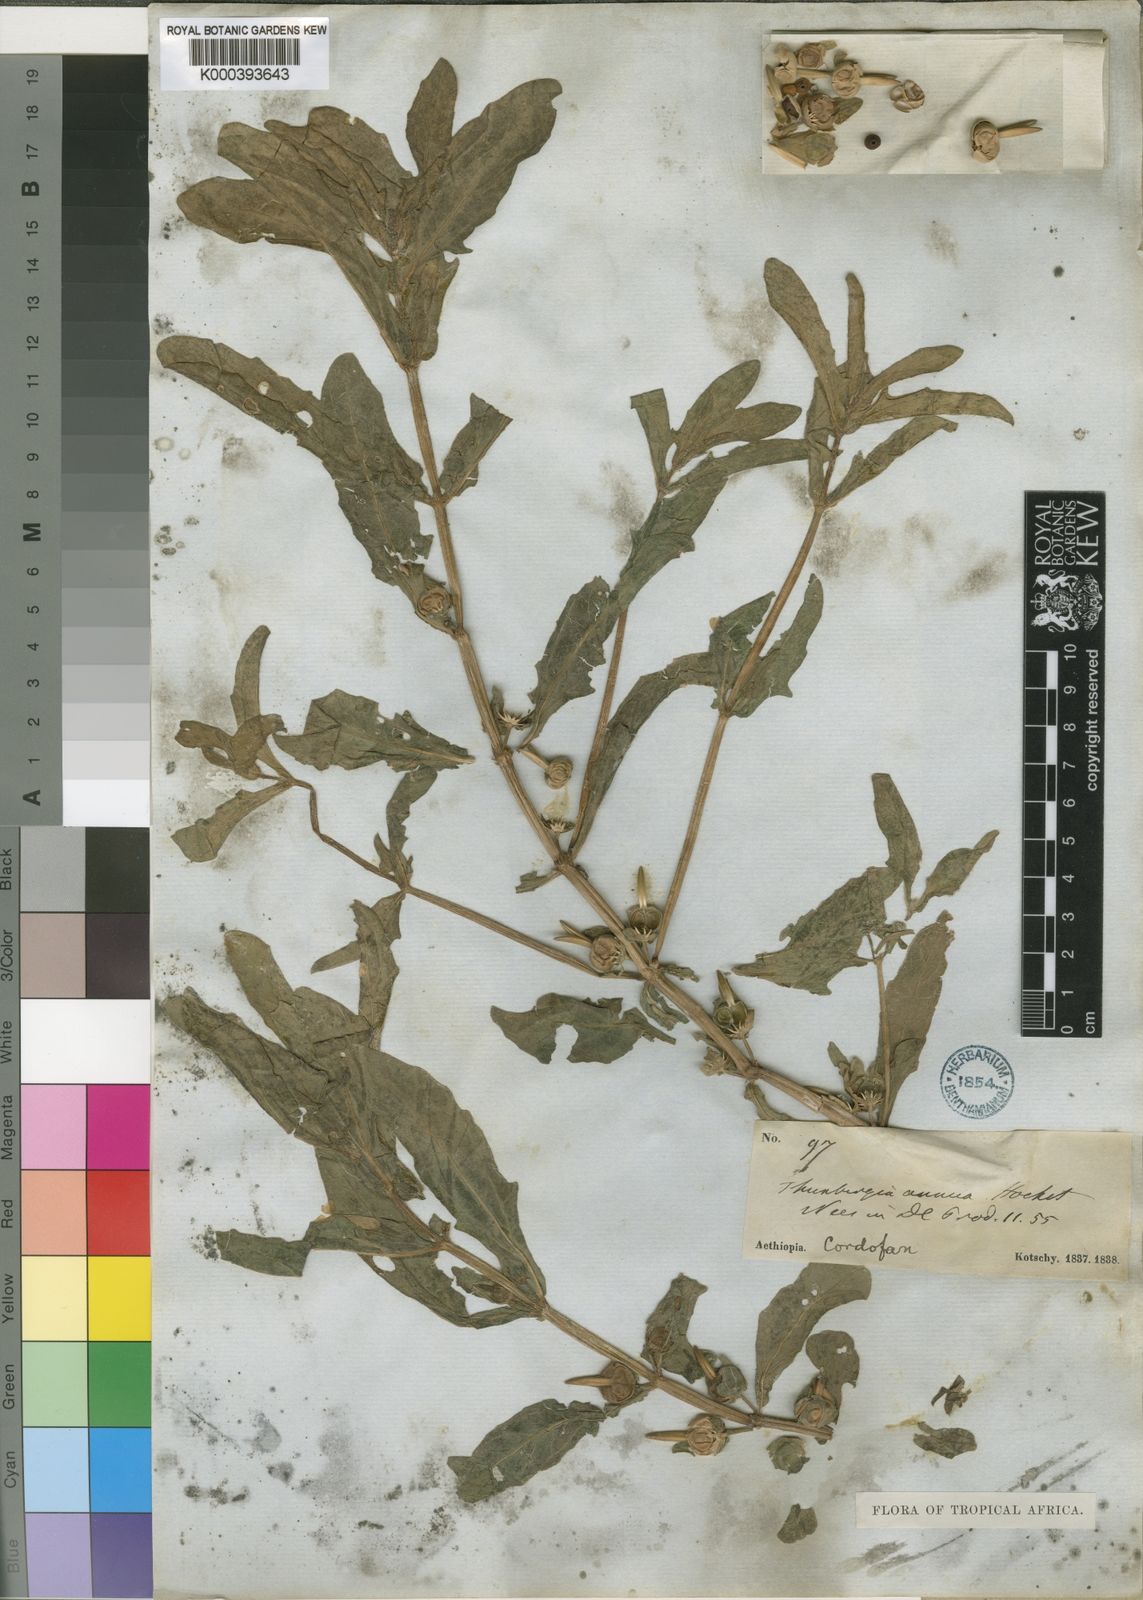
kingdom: Plantae
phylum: Tracheophyta
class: Magnoliopsida
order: Lamiales
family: Acanthaceae
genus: Thunbergia
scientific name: Thunbergia annua
